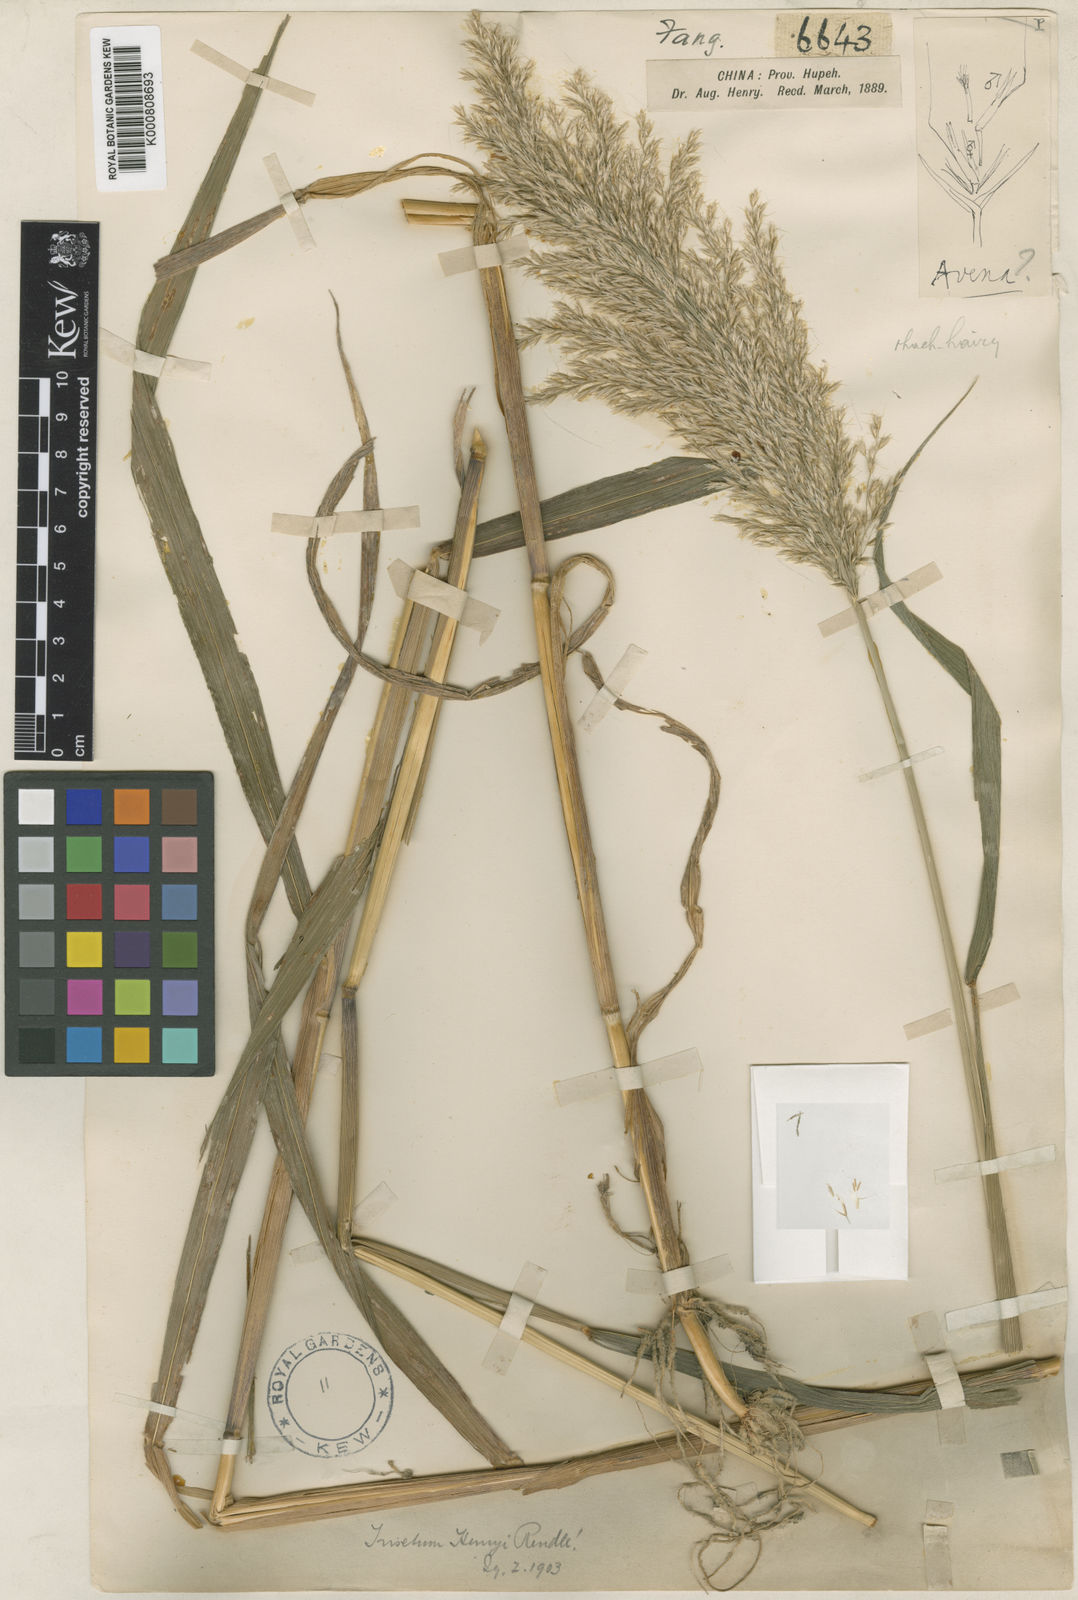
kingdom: Plantae
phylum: Tracheophyta
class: Liliopsida
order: Poales
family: Poaceae
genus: Sibirotrisetum
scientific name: Sibirotrisetum henryi
